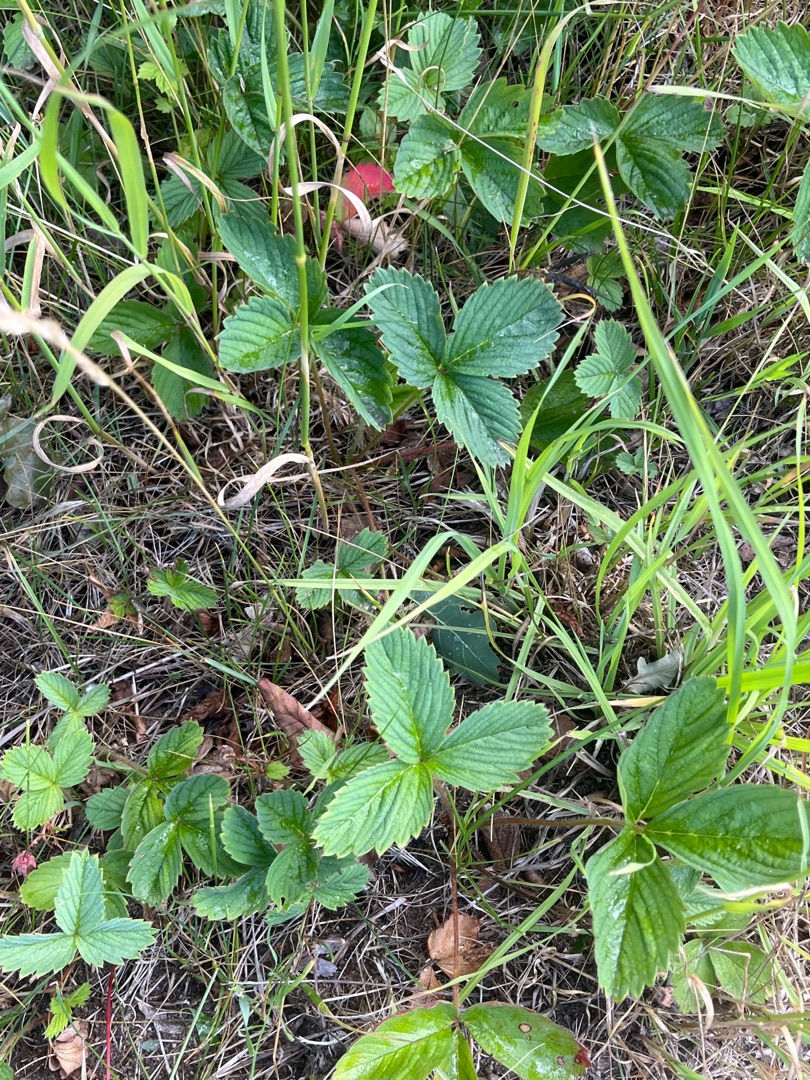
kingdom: Plantae
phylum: Tracheophyta
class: Magnoliopsida
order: Rosales
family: Rosaceae
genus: Fragaria
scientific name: Fragaria vesca
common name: Skov-jordbær
